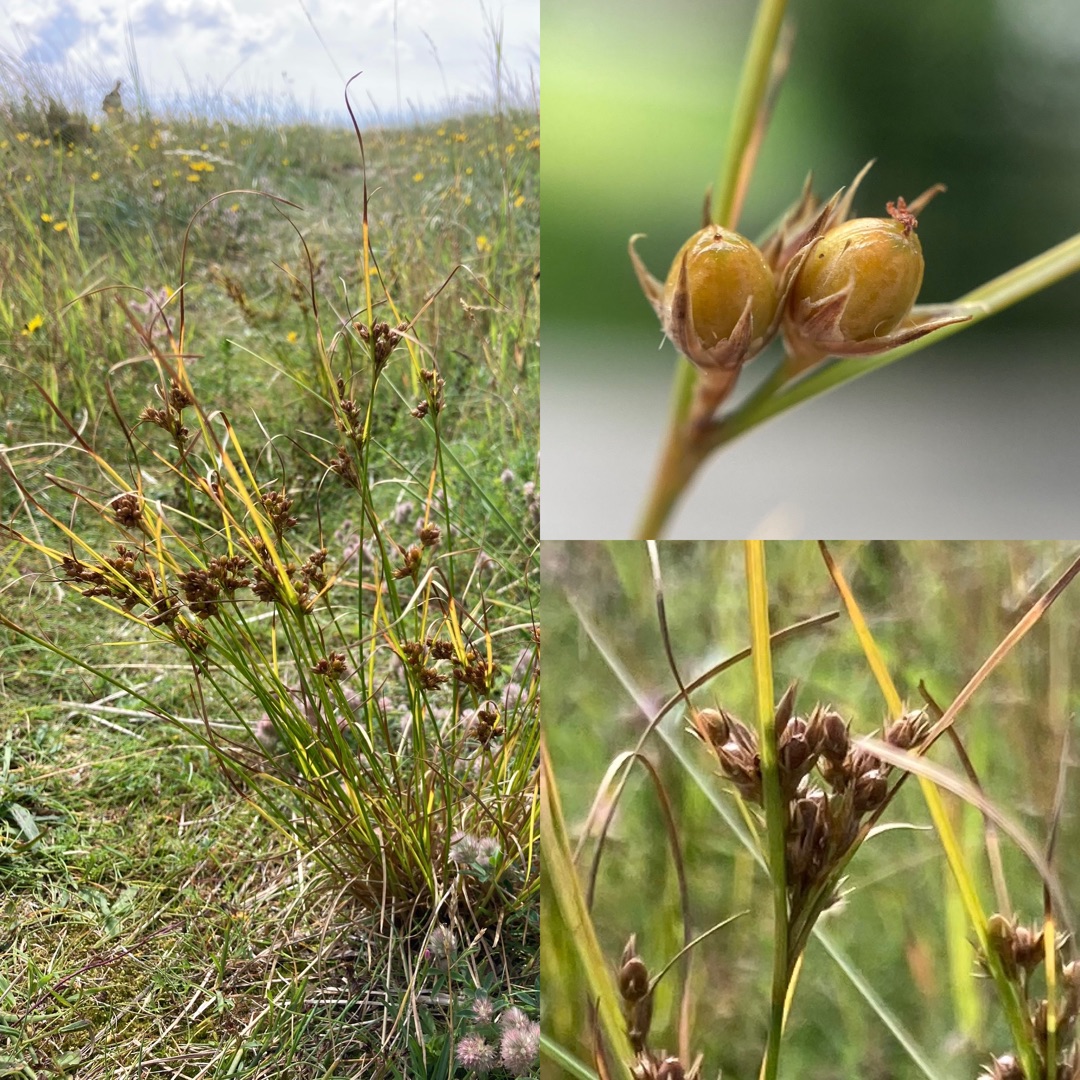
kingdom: Plantae
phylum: Tracheophyta
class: Liliopsida
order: Poales
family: Juncaceae
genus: Juncus
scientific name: Juncus tenuis
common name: Tue-siv
